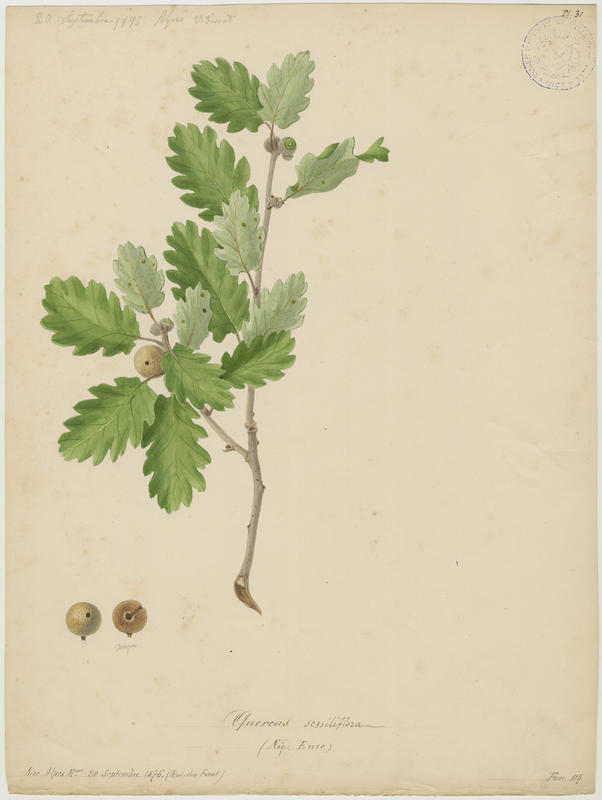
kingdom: Plantae
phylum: Tracheophyta
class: Magnoliopsida
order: Fagales
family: Fagaceae
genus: Quercus
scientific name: Quercus petraea
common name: Sessile oak
